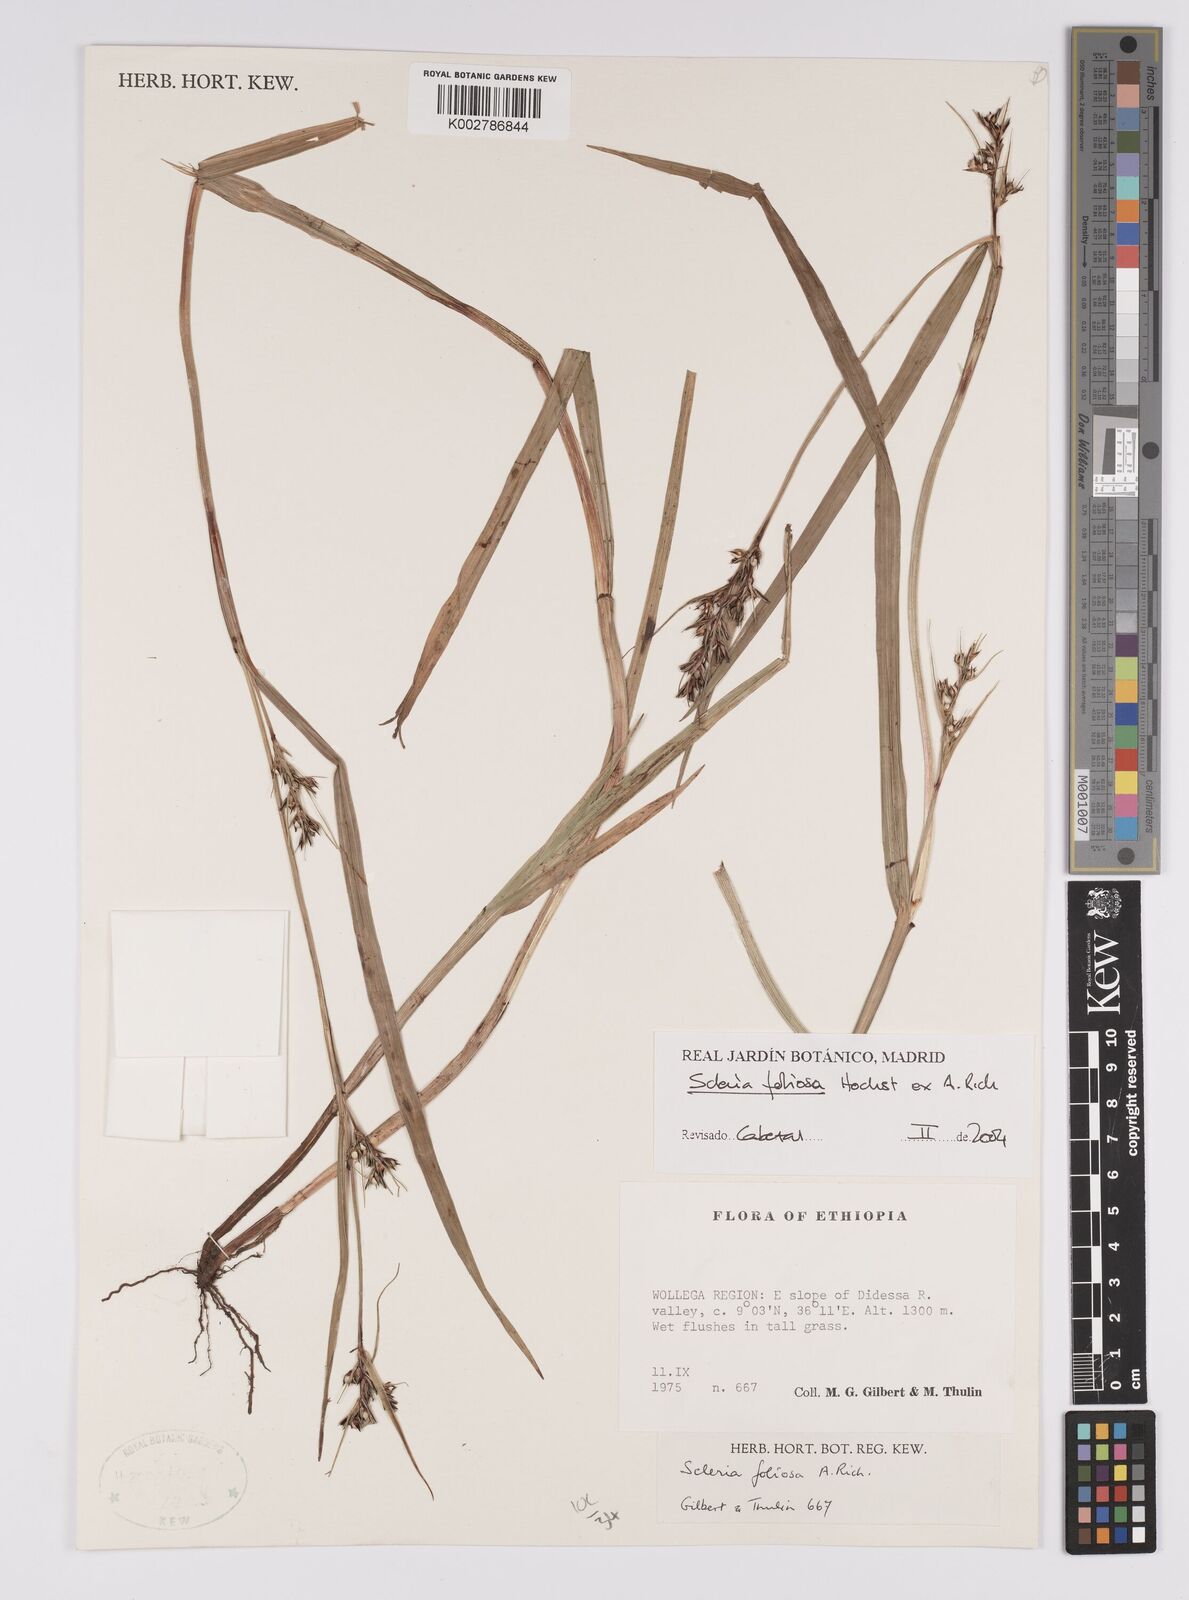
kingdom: Plantae
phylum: Tracheophyta
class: Liliopsida
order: Poales
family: Cyperaceae
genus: Scleria
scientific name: Scleria foliosa
